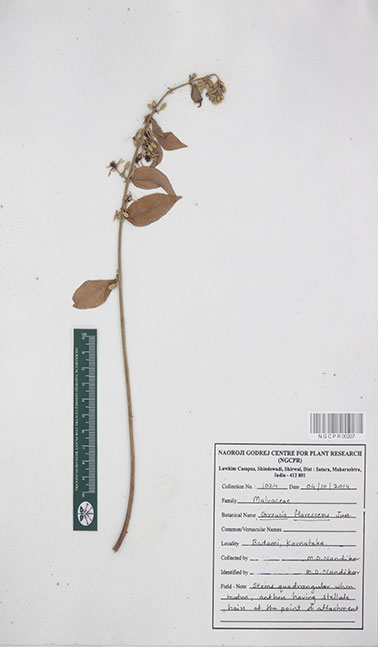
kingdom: Plantae
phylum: Tracheophyta
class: Magnoliopsida
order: Malvales
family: Malvaceae
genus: Grewia
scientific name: Grewia flavescens
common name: Sandpaper raisin
